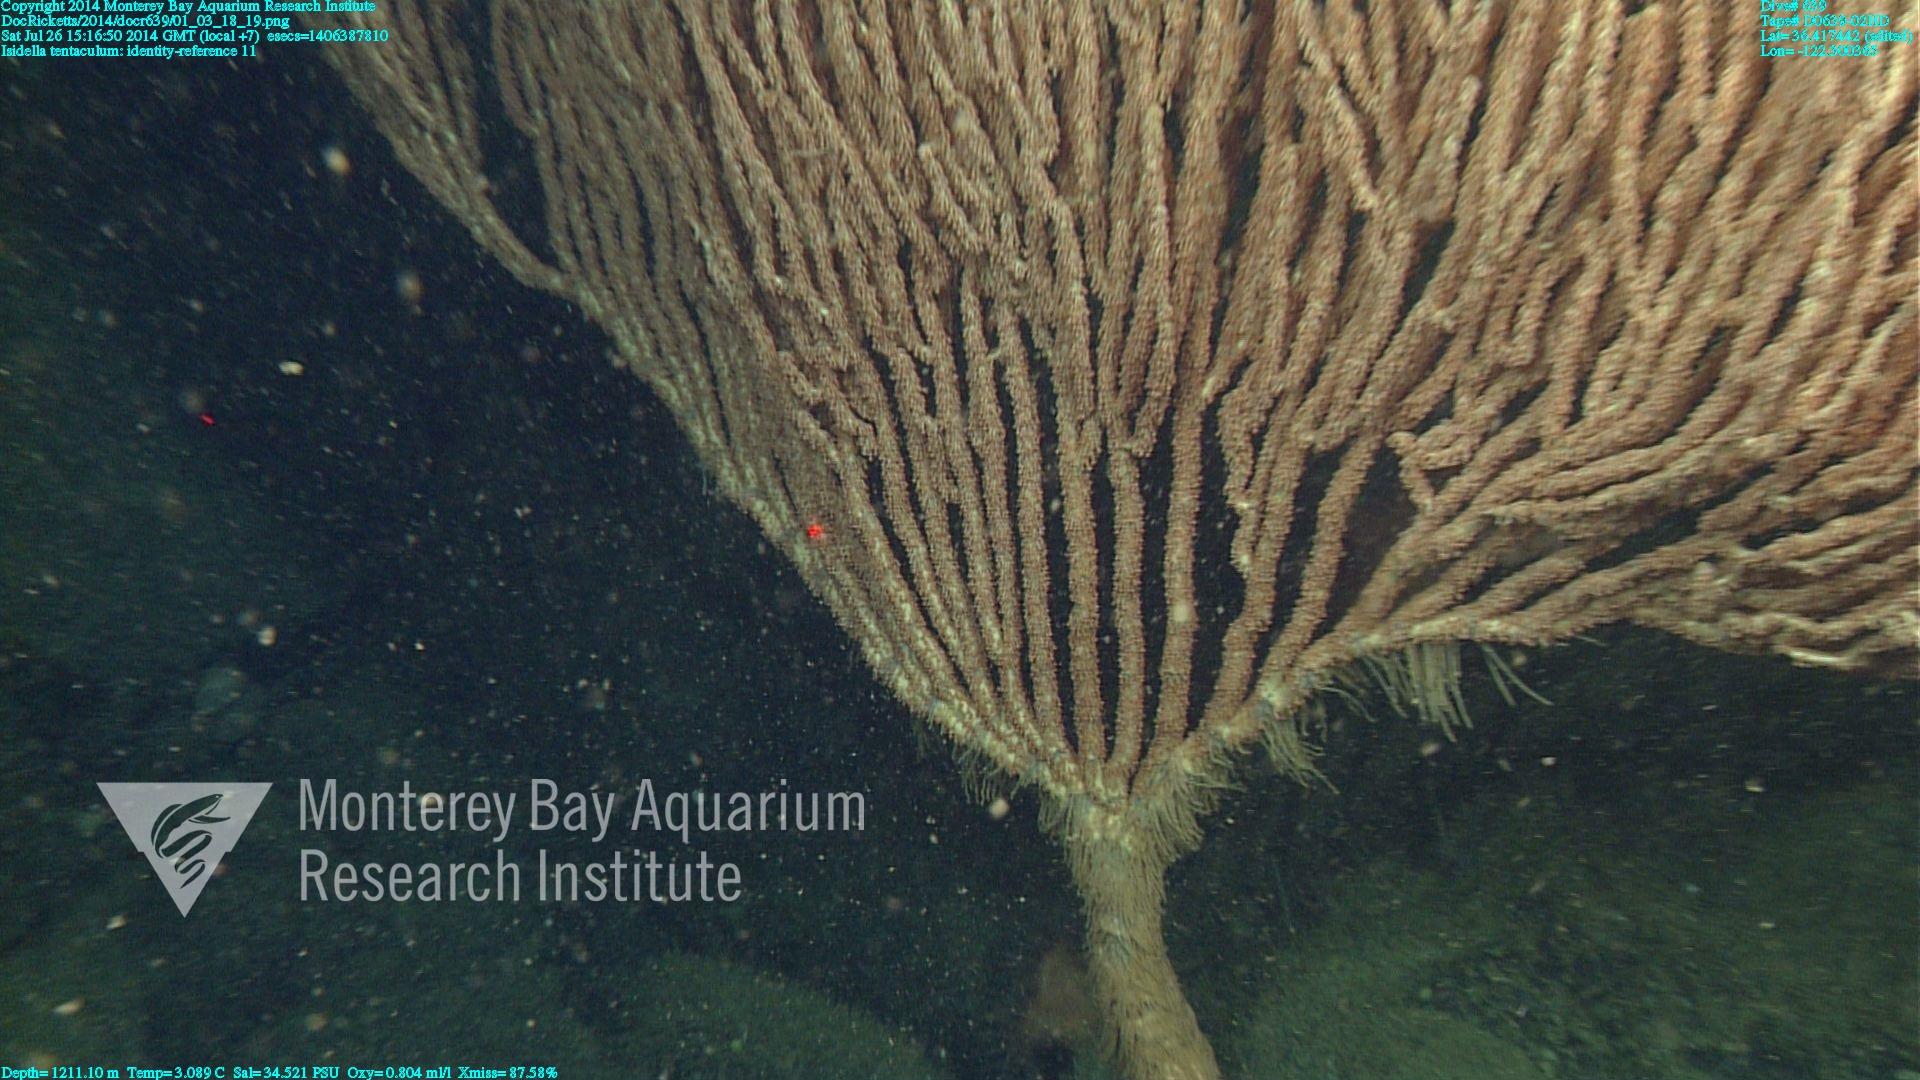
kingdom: Animalia
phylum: Cnidaria
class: Anthozoa
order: Scleralcyonacea
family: Keratoisididae
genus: Isidella
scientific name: Isidella tentaculum
